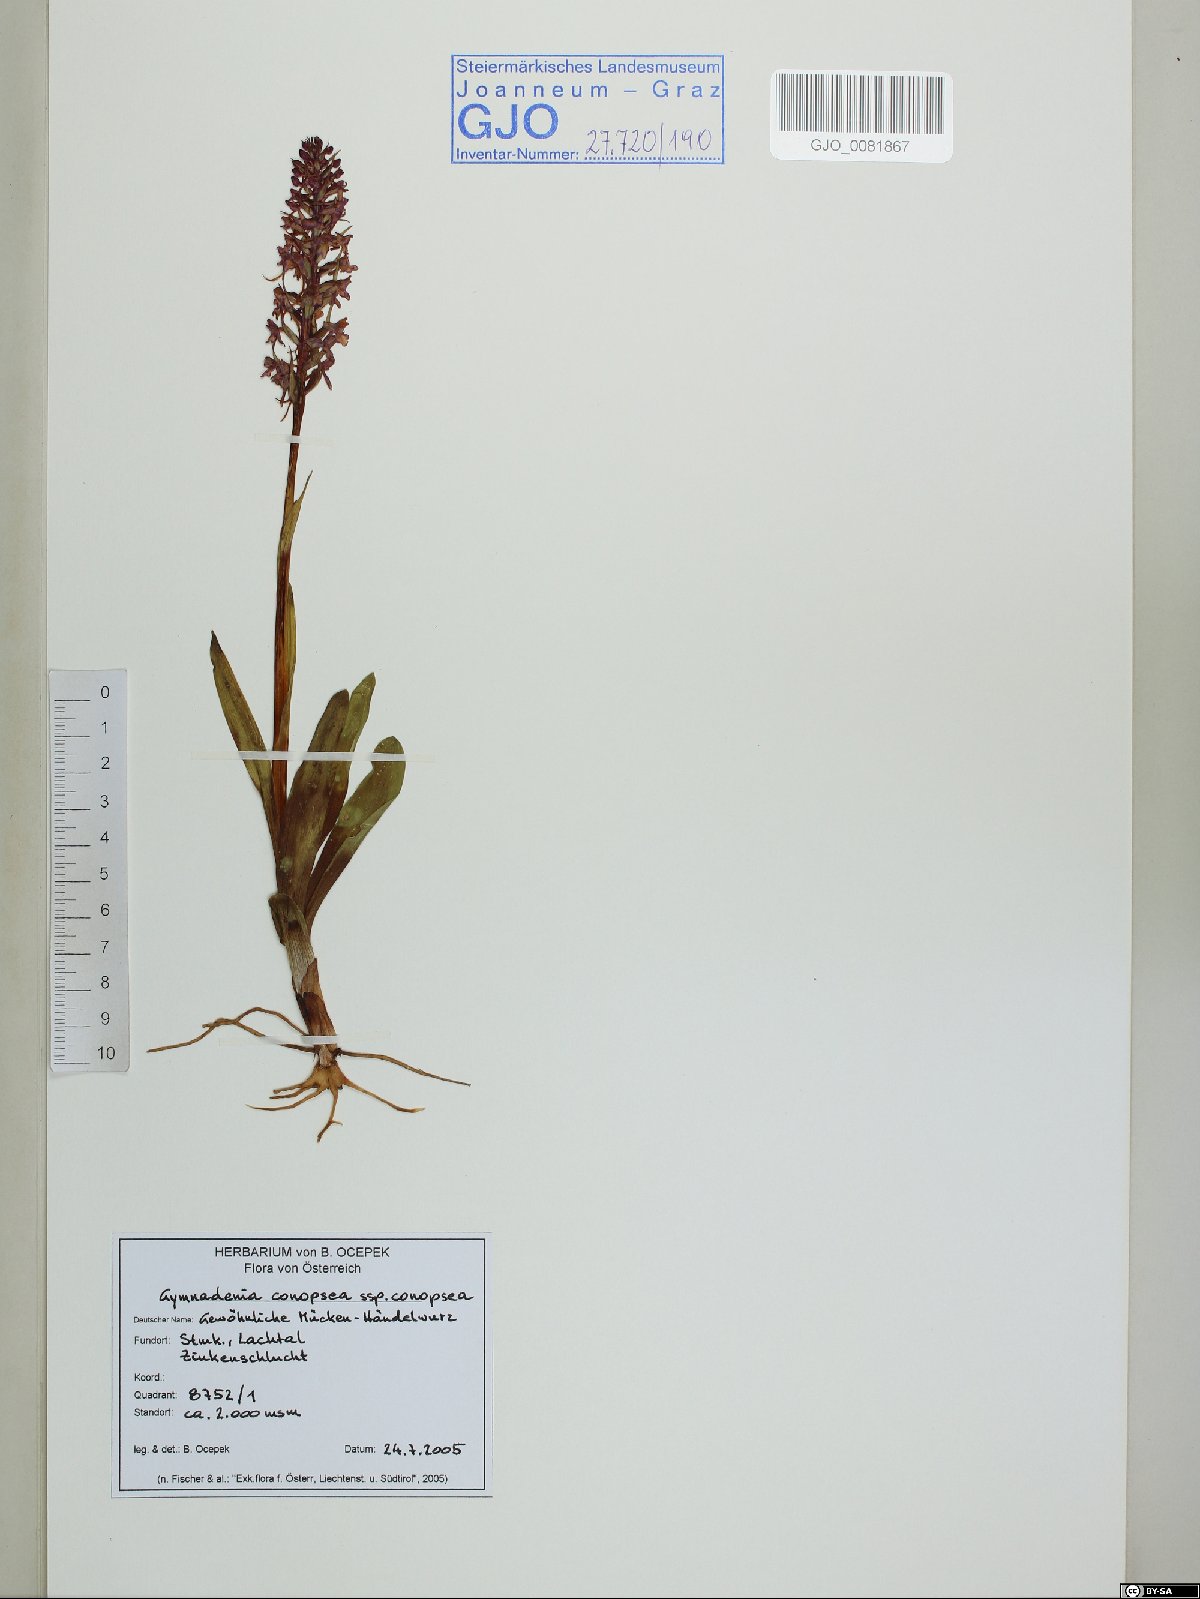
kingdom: Plantae
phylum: Tracheophyta
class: Liliopsida
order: Asparagales
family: Orchidaceae
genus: Gymnadenia
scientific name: Gymnadenia conopsea
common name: Fragrant orchid
